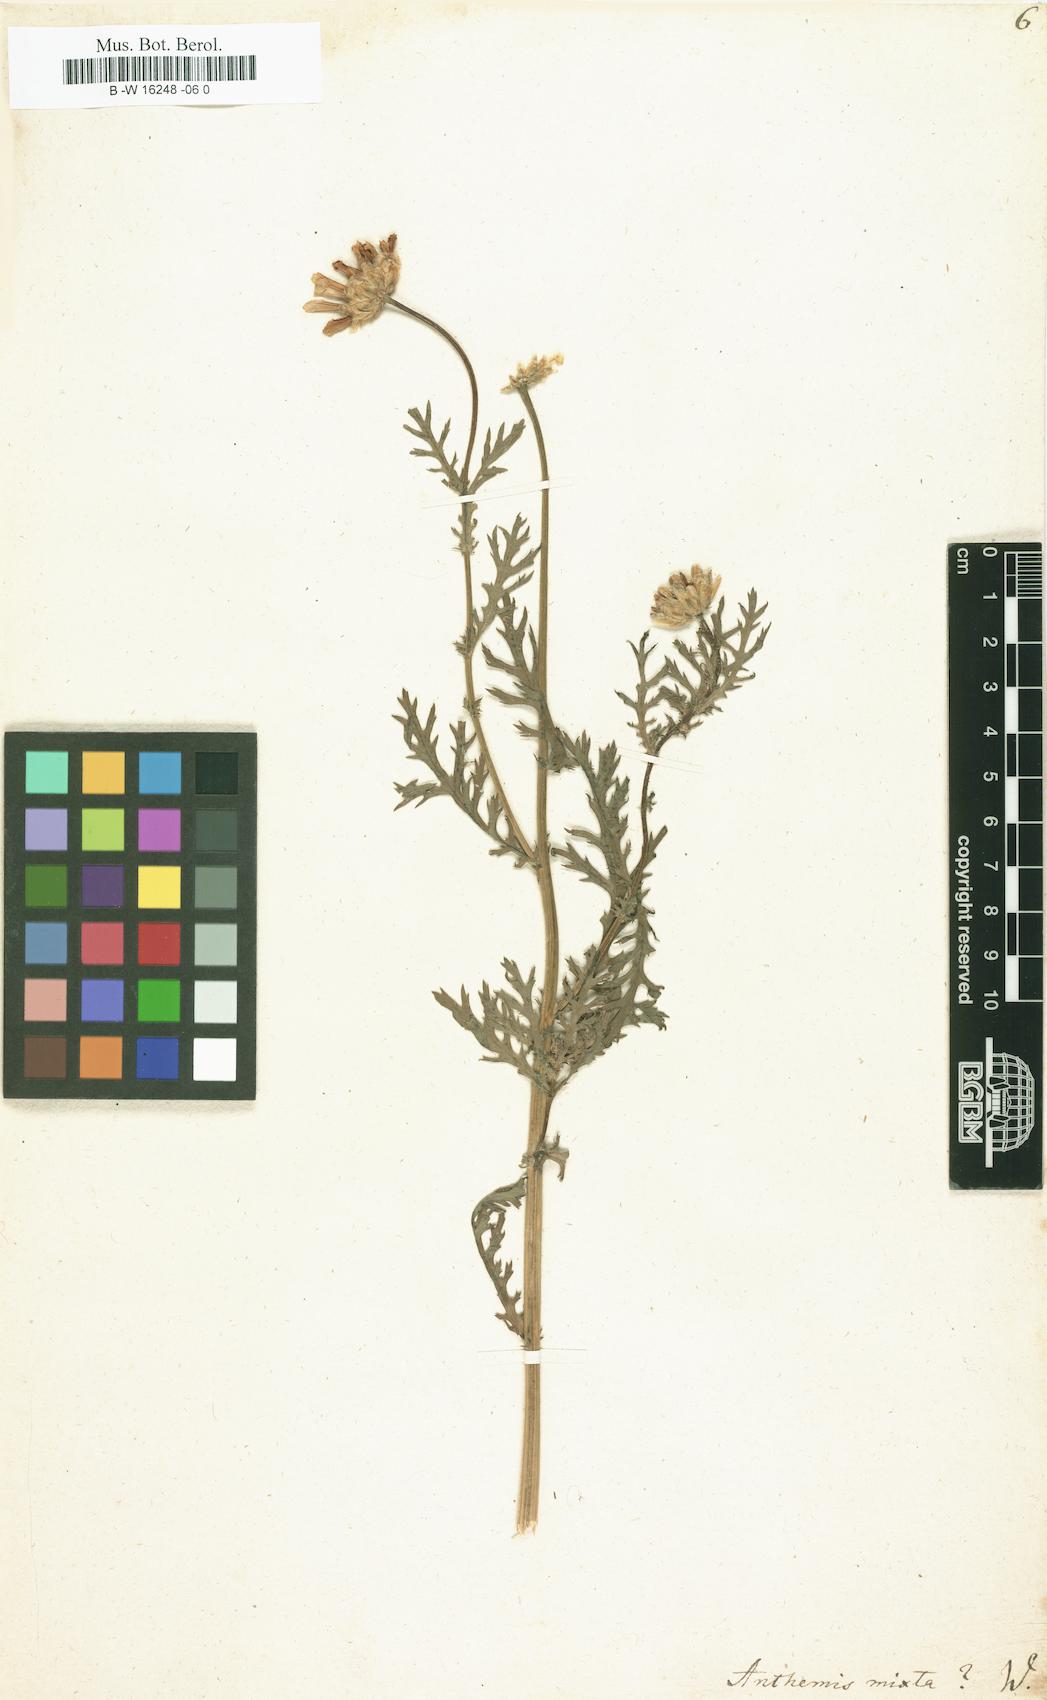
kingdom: Plantae
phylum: Tracheophyta
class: Magnoliopsida
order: Asterales
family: Asteraceae
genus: Cladanthus
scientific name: Cladanthus mixtus
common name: Weedy dogfennel
